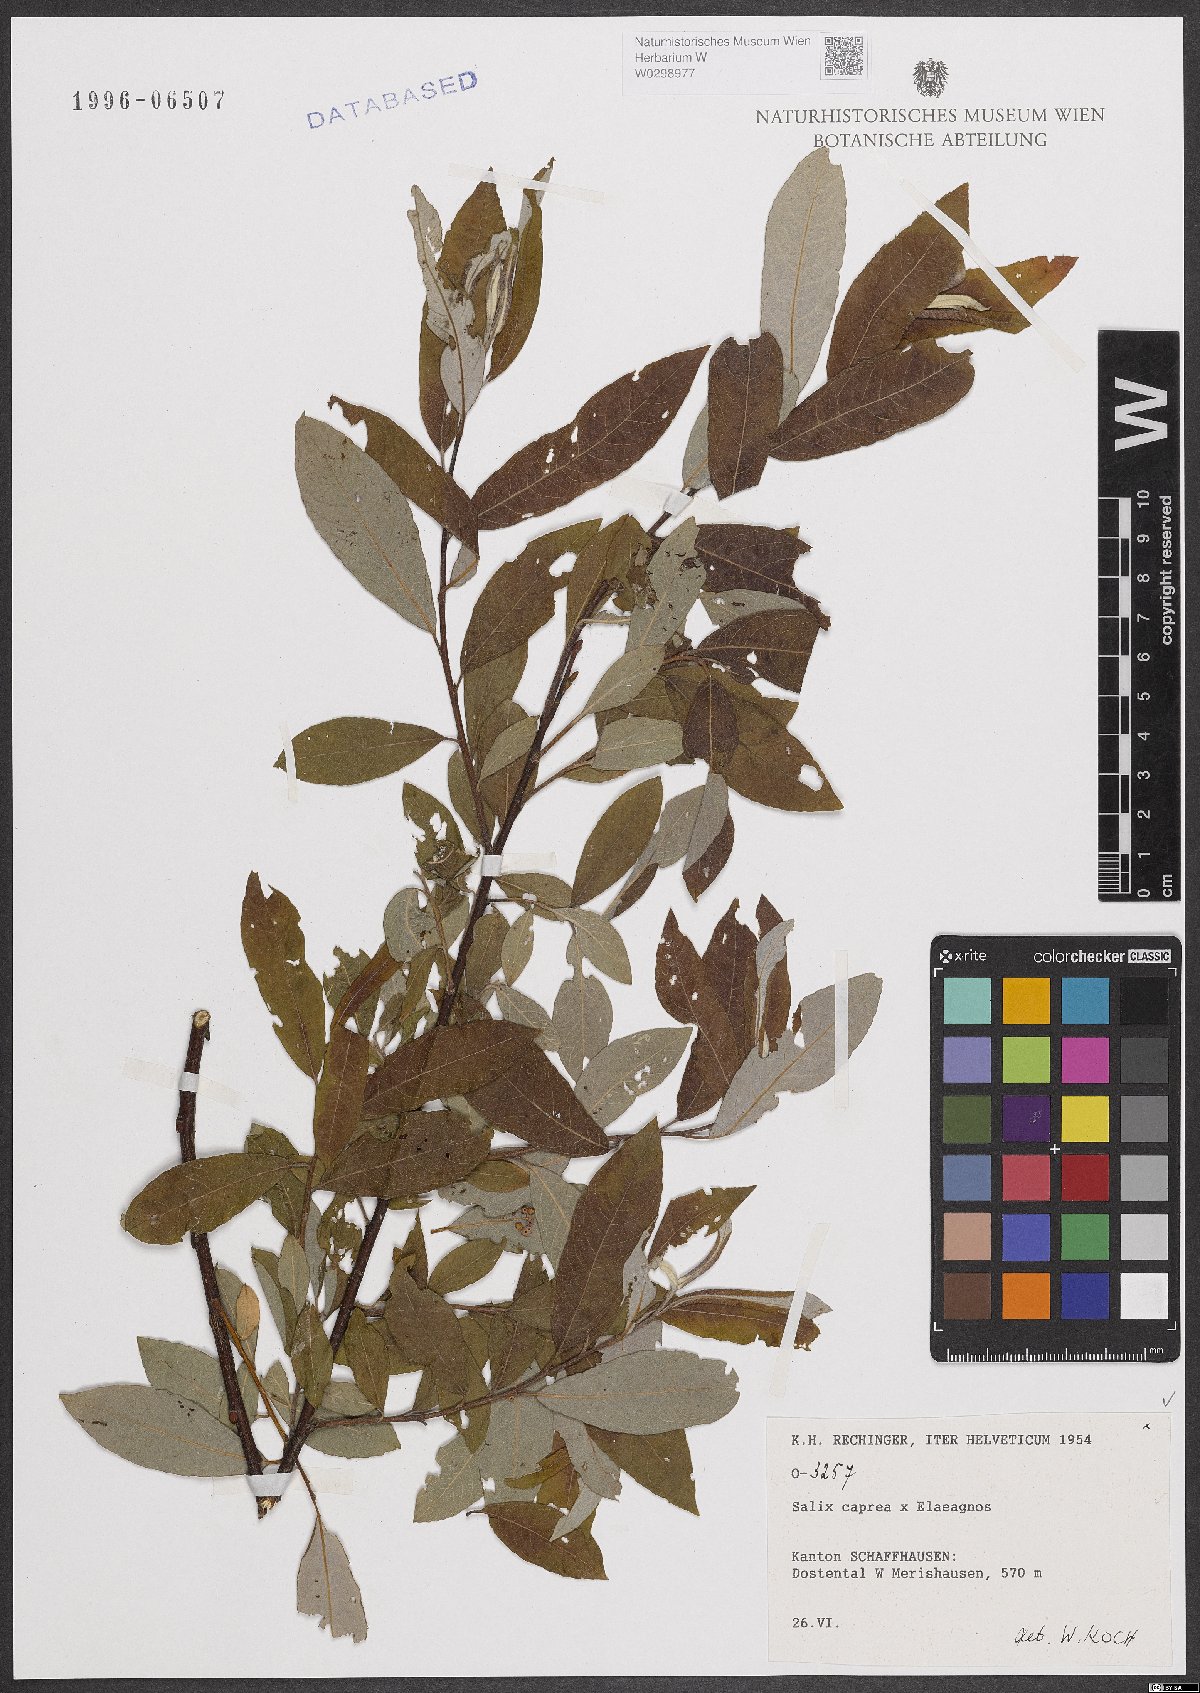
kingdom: Plantae
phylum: Tracheophyta
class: Magnoliopsida
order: Malpighiales
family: Salicaceae
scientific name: Salicaceae
